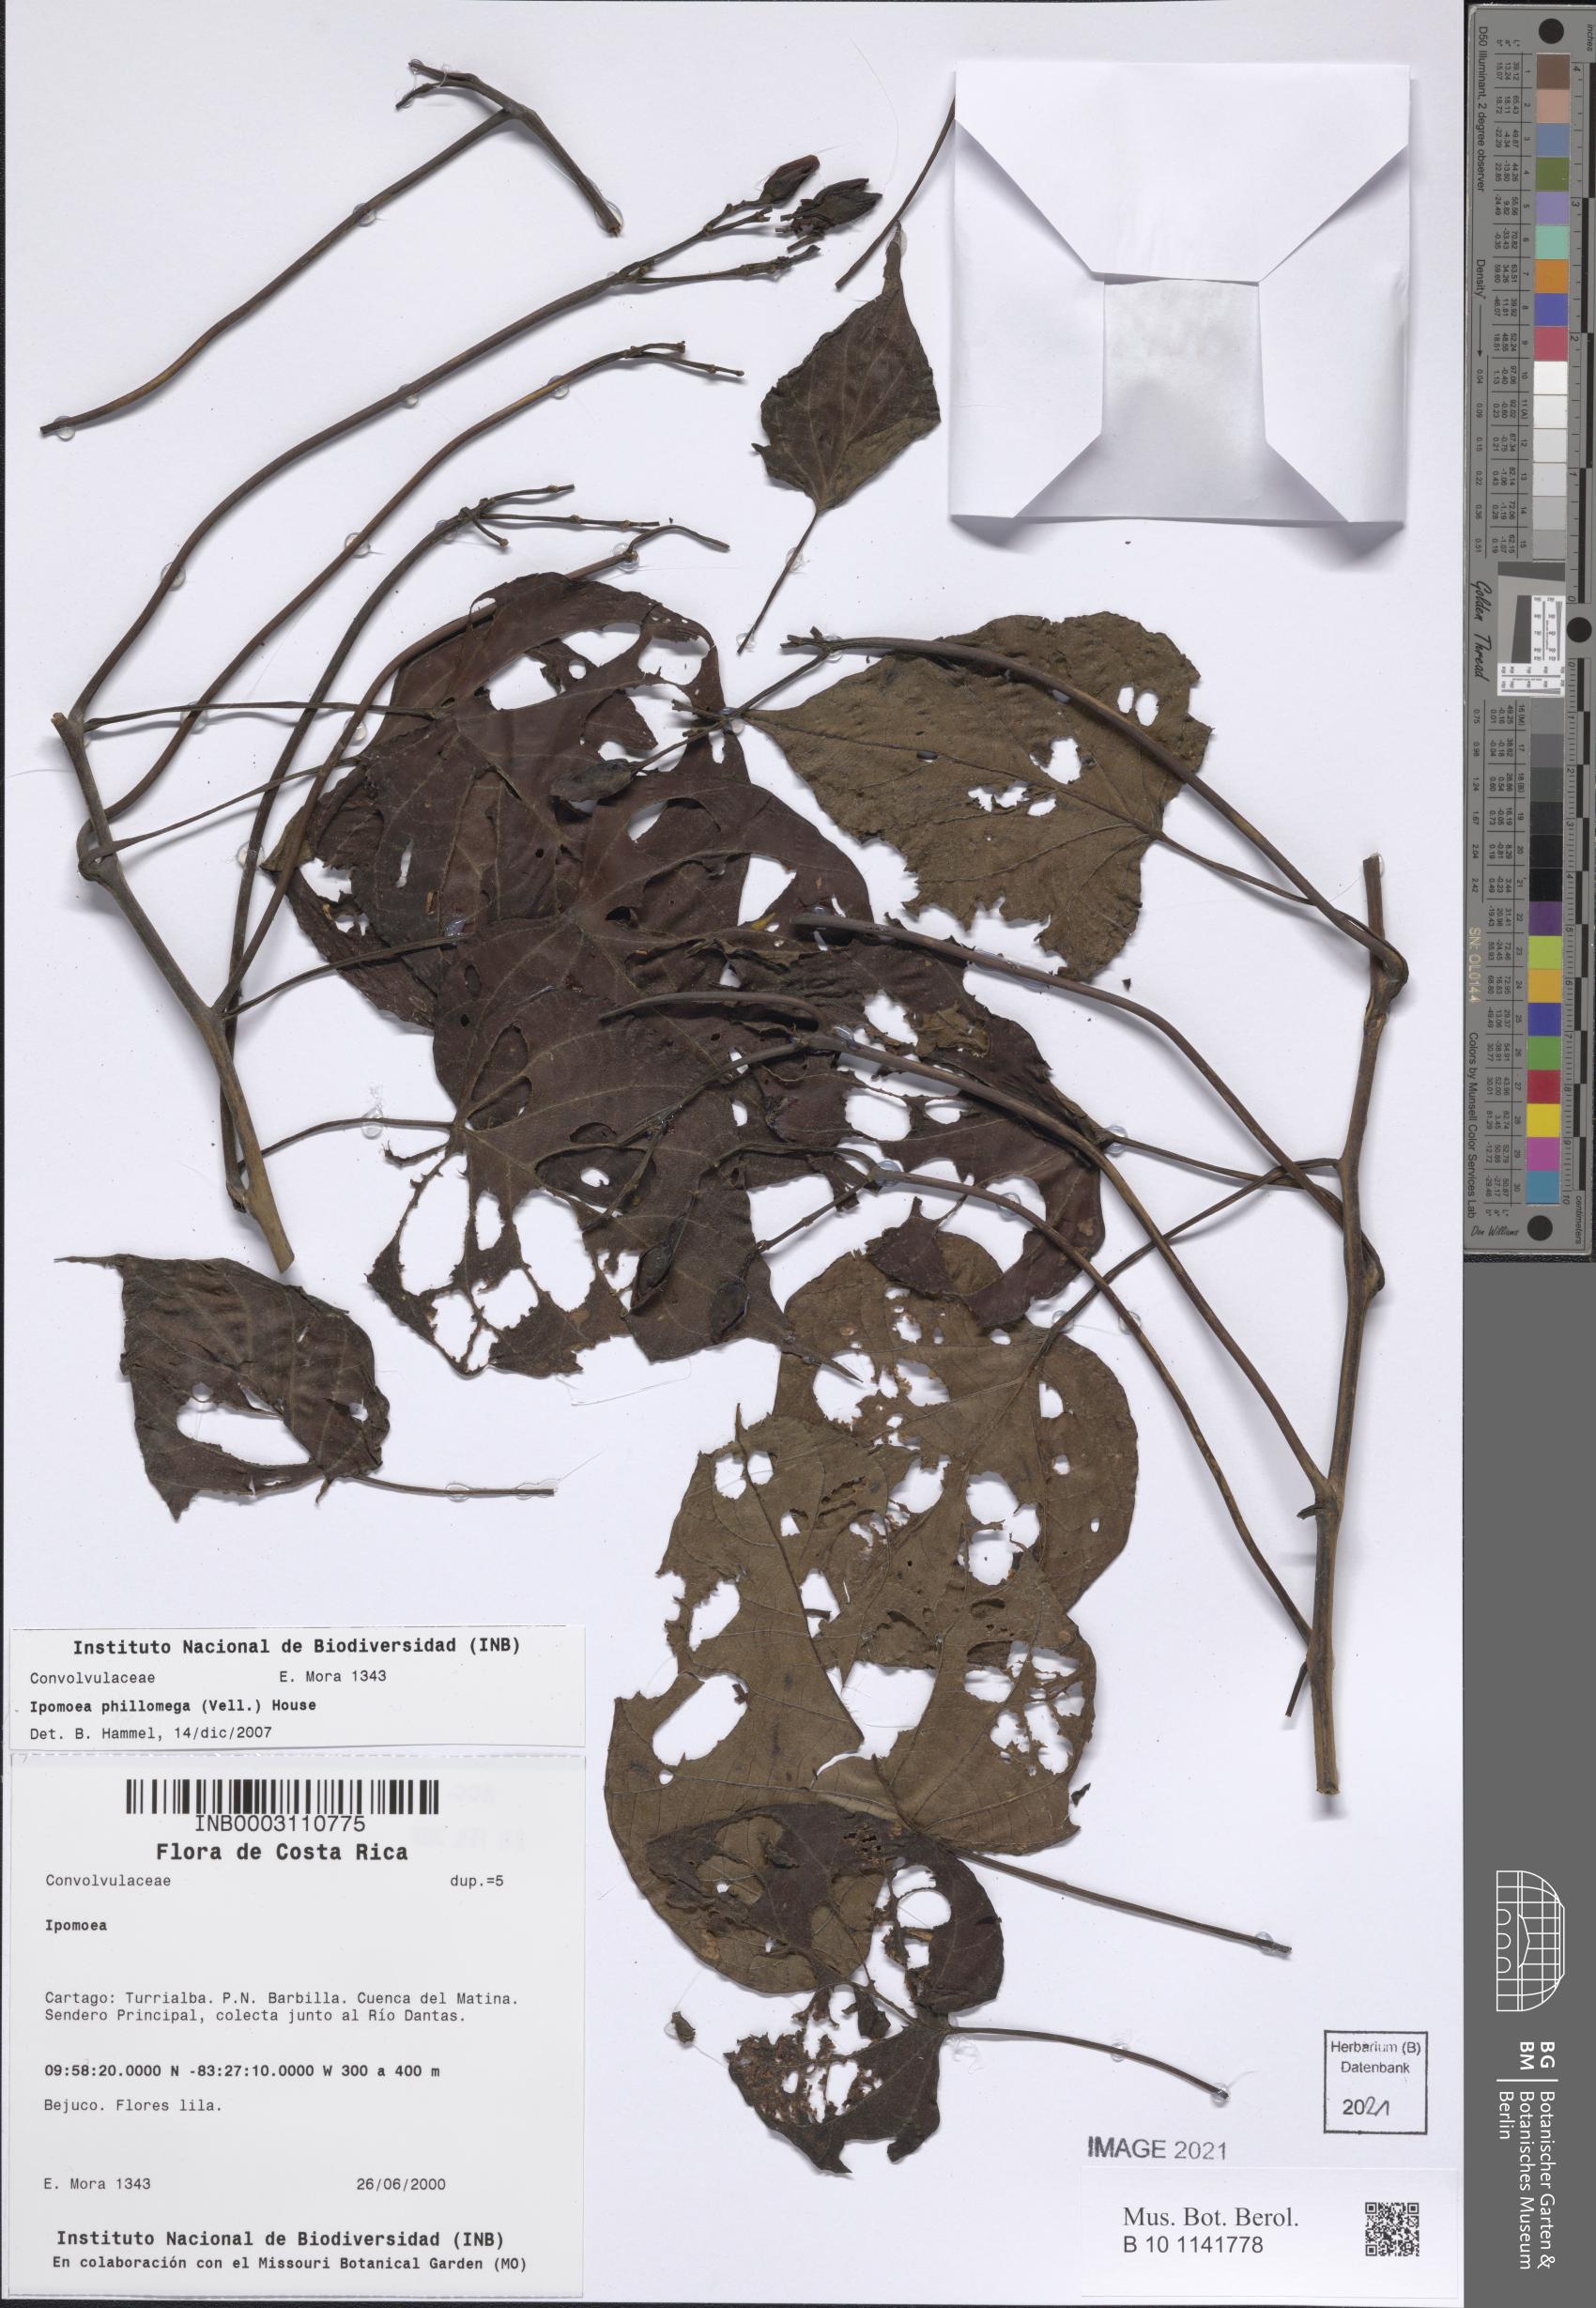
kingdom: Plantae
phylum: Tracheophyta
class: Magnoliopsida
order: Solanales
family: Convolvulaceae
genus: Ipomoea
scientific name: Ipomoea philomega
